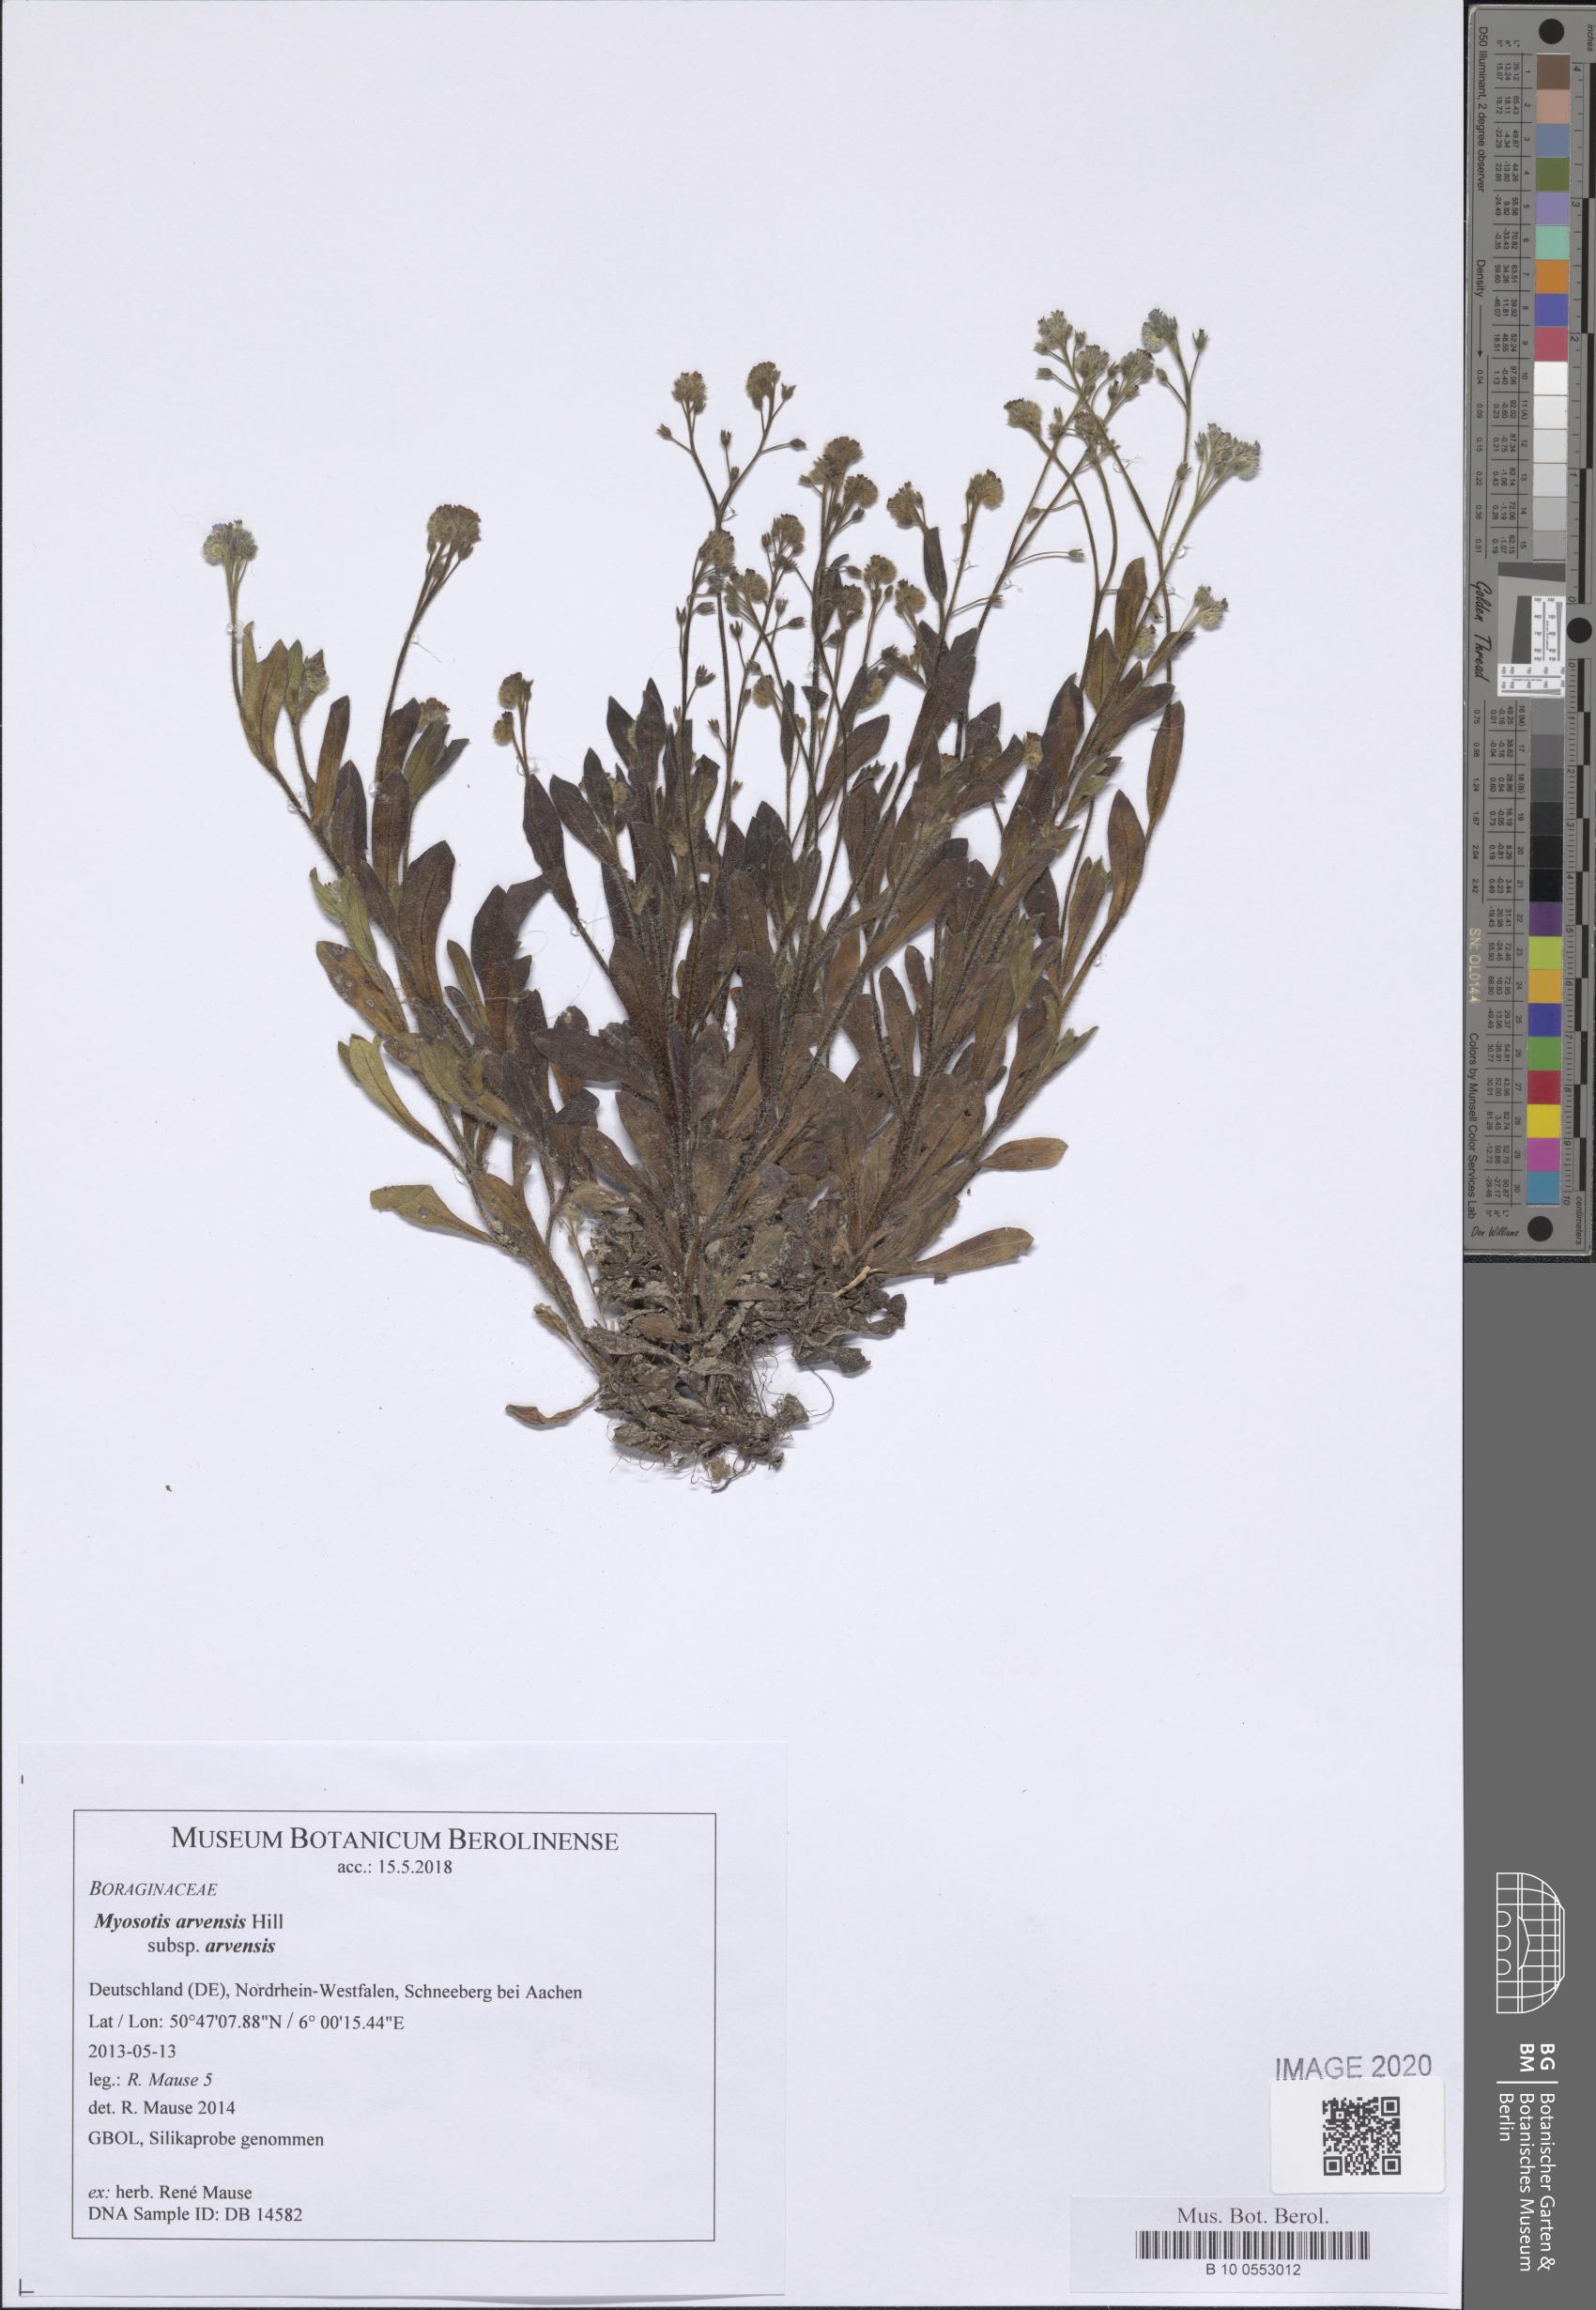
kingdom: Plantae
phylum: Tracheophyta
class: Magnoliopsida
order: Boraginales
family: Boraginaceae
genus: Myosotis
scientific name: Myosotis arvensis
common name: Field forget-me-not
